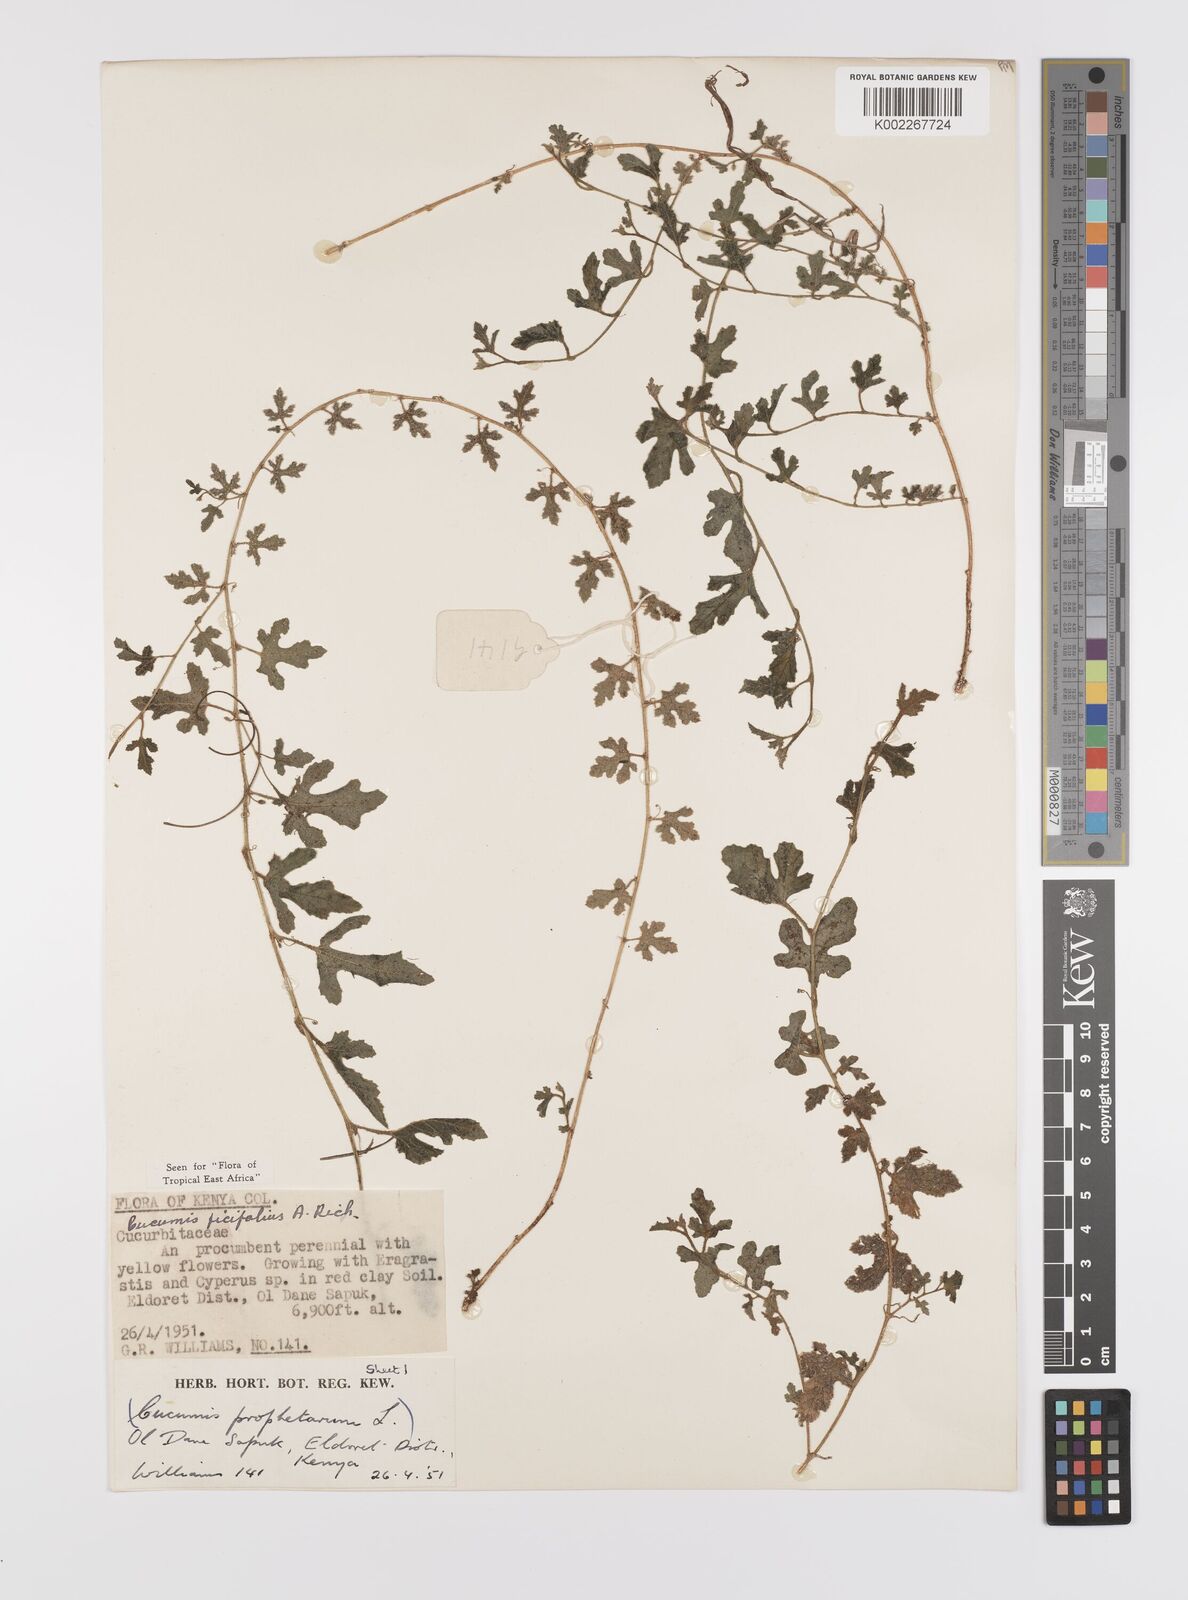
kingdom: Plantae
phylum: Tracheophyta
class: Magnoliopsida
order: Cucurbitales
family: Cucurbitaceae
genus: Cucumis
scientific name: Cucumis ficifolius
